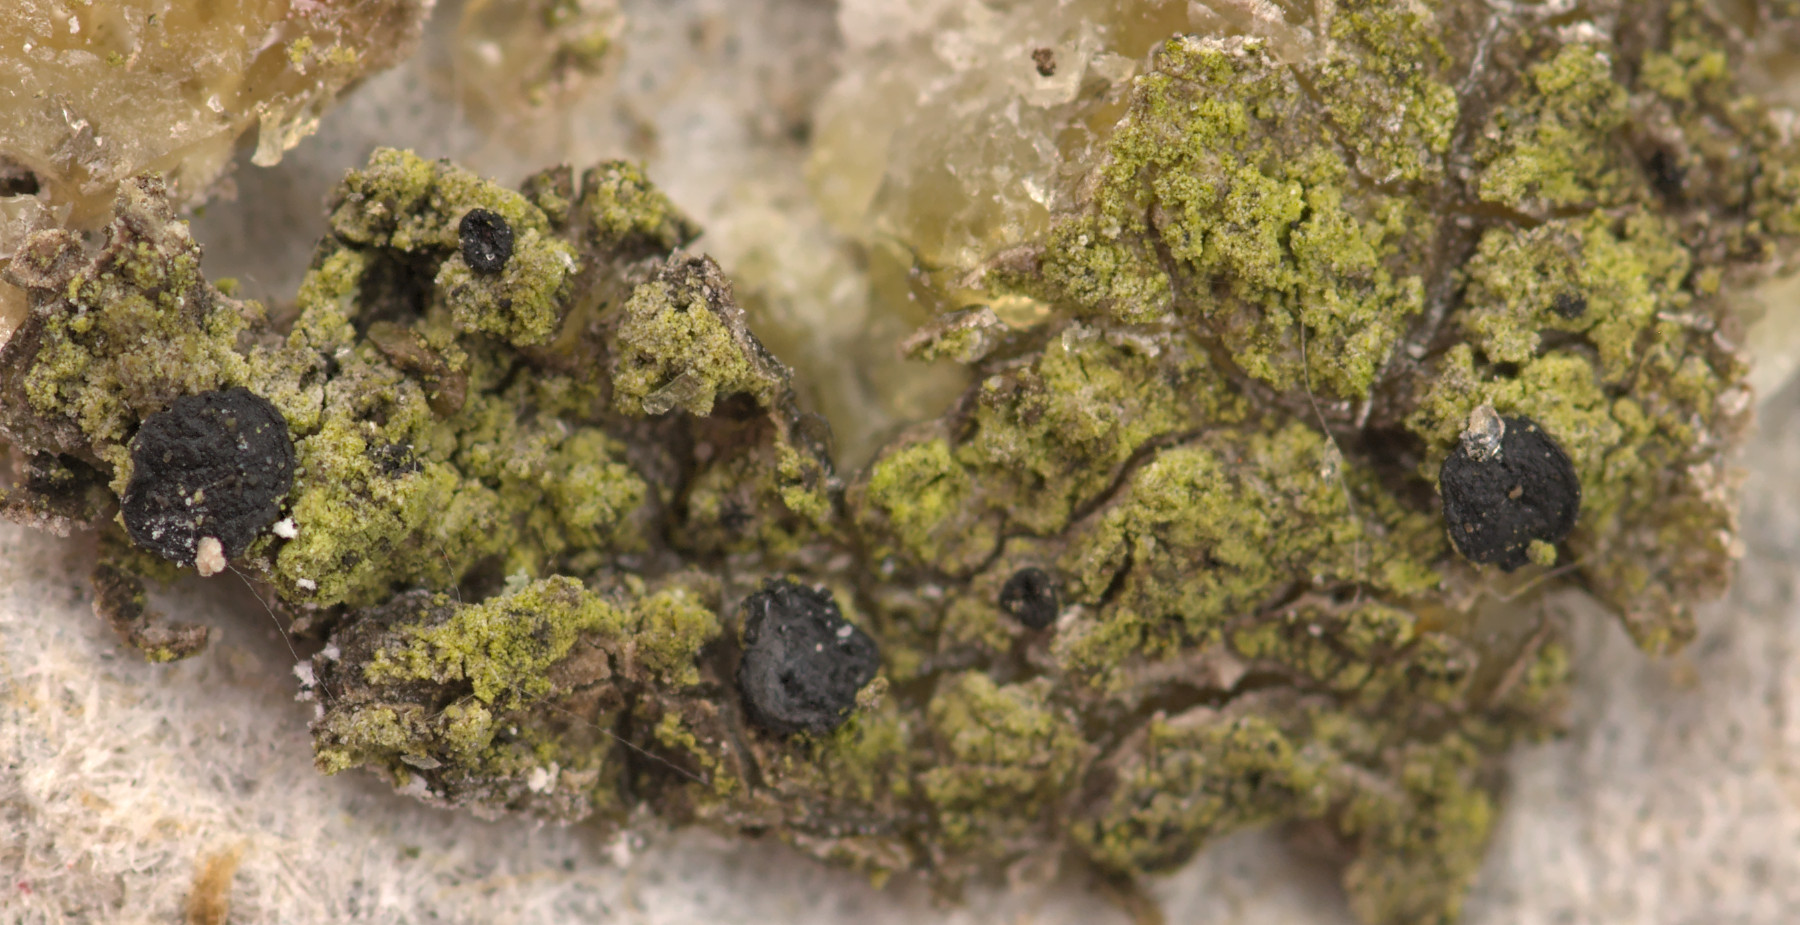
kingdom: Fungi
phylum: Ascomycota
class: Leotiomycetes
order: Leotiales
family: Tympanidaceae
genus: Claussenomyces
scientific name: Claussenomyces olivaceus
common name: harpiks-linseskive
